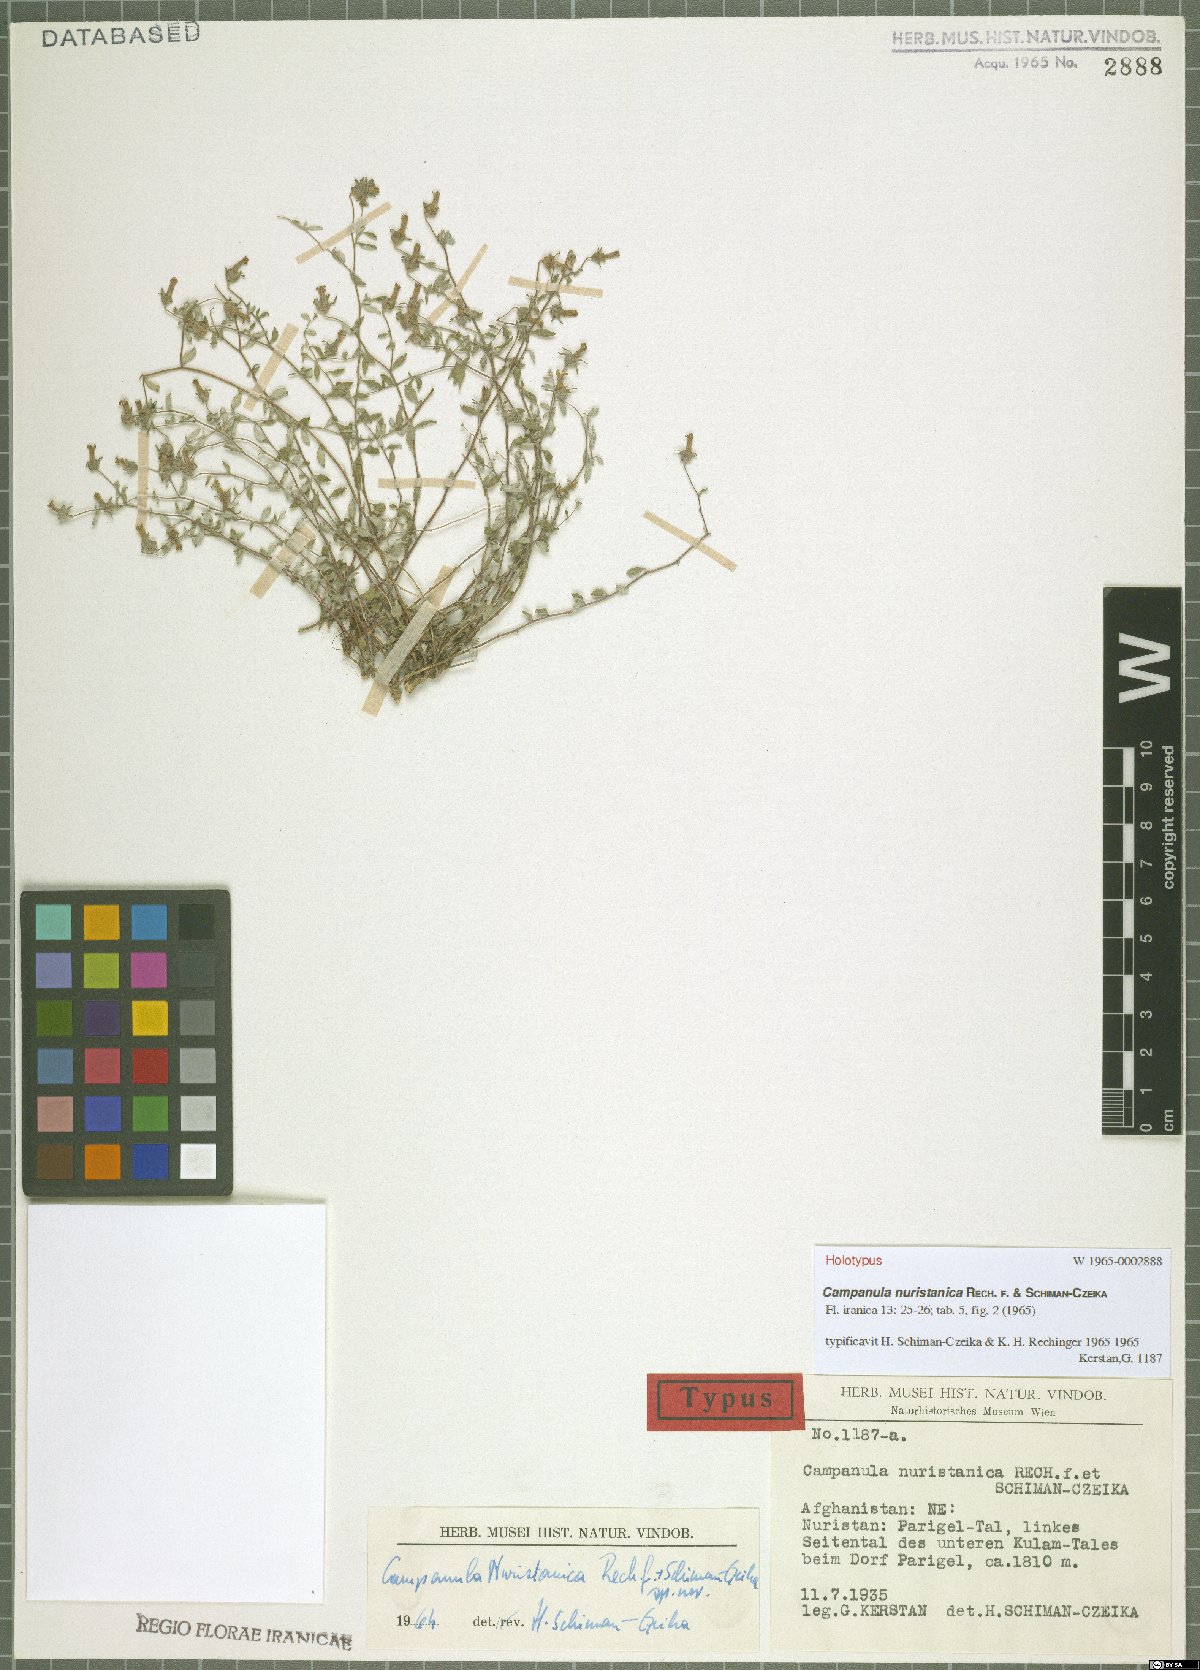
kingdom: Plantae
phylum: Tracheophyta
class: Magnoliopsida
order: Asterales
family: Campanulaceae
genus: Campanula
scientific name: Campanula nuristanica
